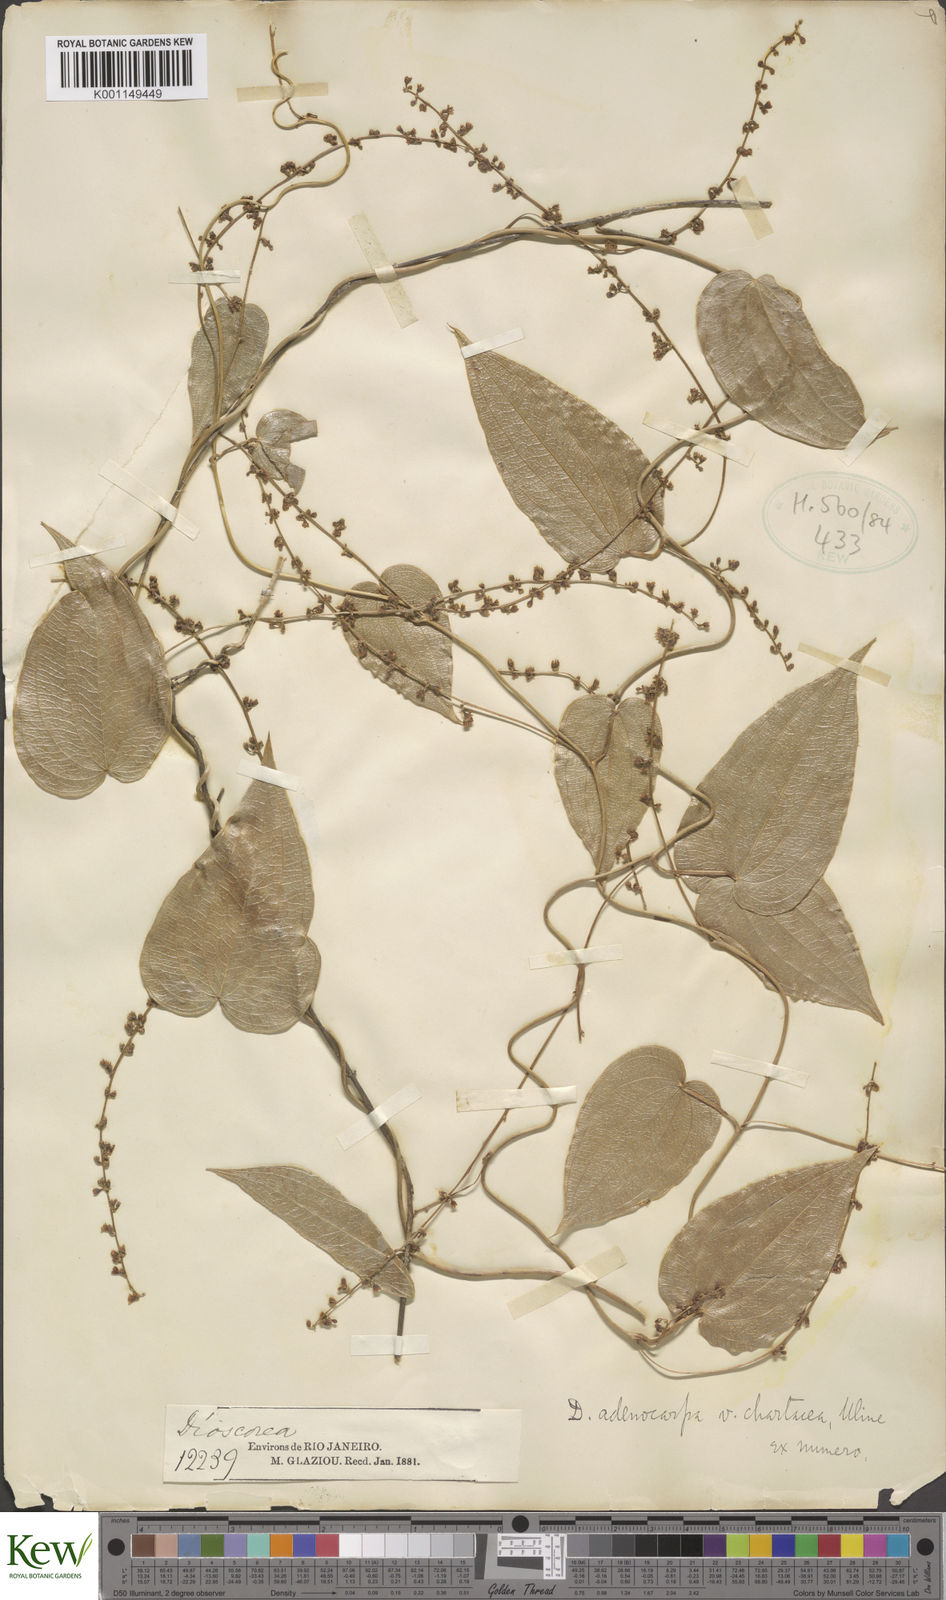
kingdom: Plantae
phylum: Tracheophyta
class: Liliopsida
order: Dioscoreales
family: Dioscoreaceae
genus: Dioscorea
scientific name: Dioscorea ovata
